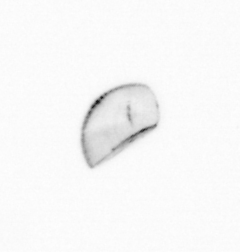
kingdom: Chromista
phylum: Ochrophyta
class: Bacillariophyceae
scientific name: Bacillariophyceae
